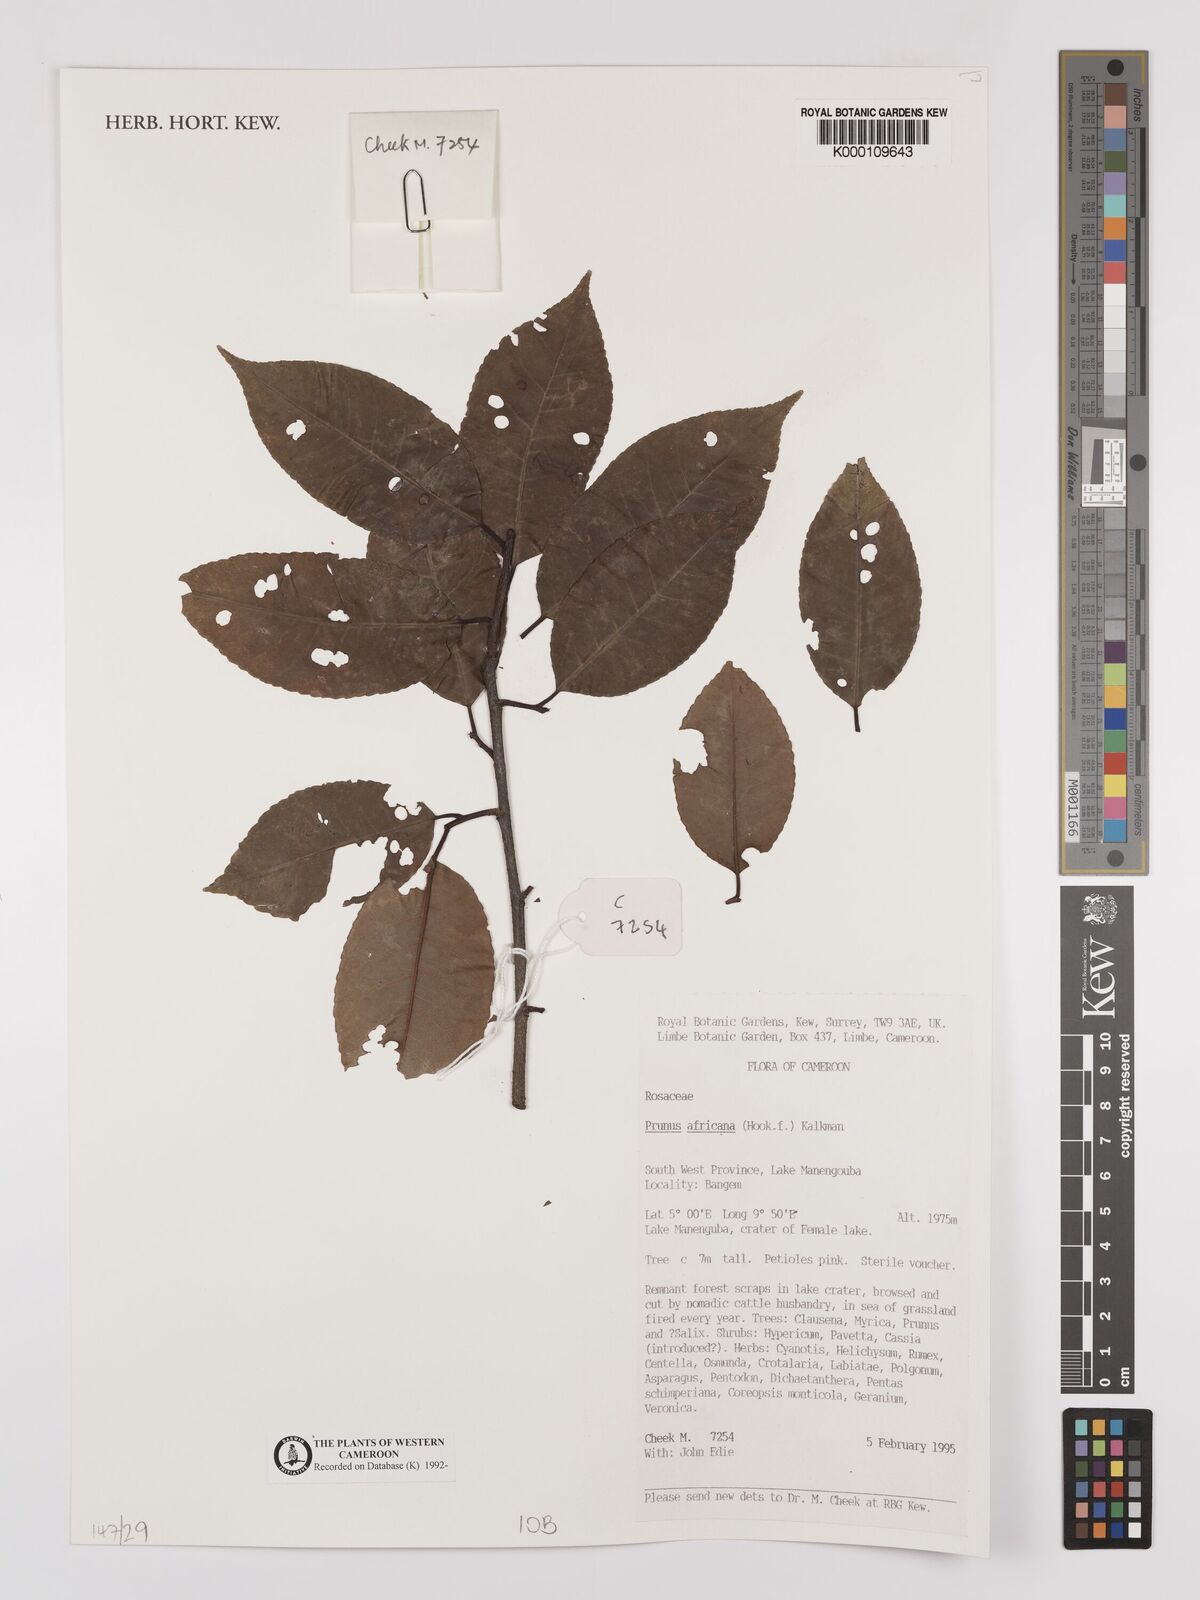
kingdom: Plantae
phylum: Tracheophyta
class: Magnoliopsida
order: Rosales
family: Rosaceae
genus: Prunus
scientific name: Prunus africana
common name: African cherry
